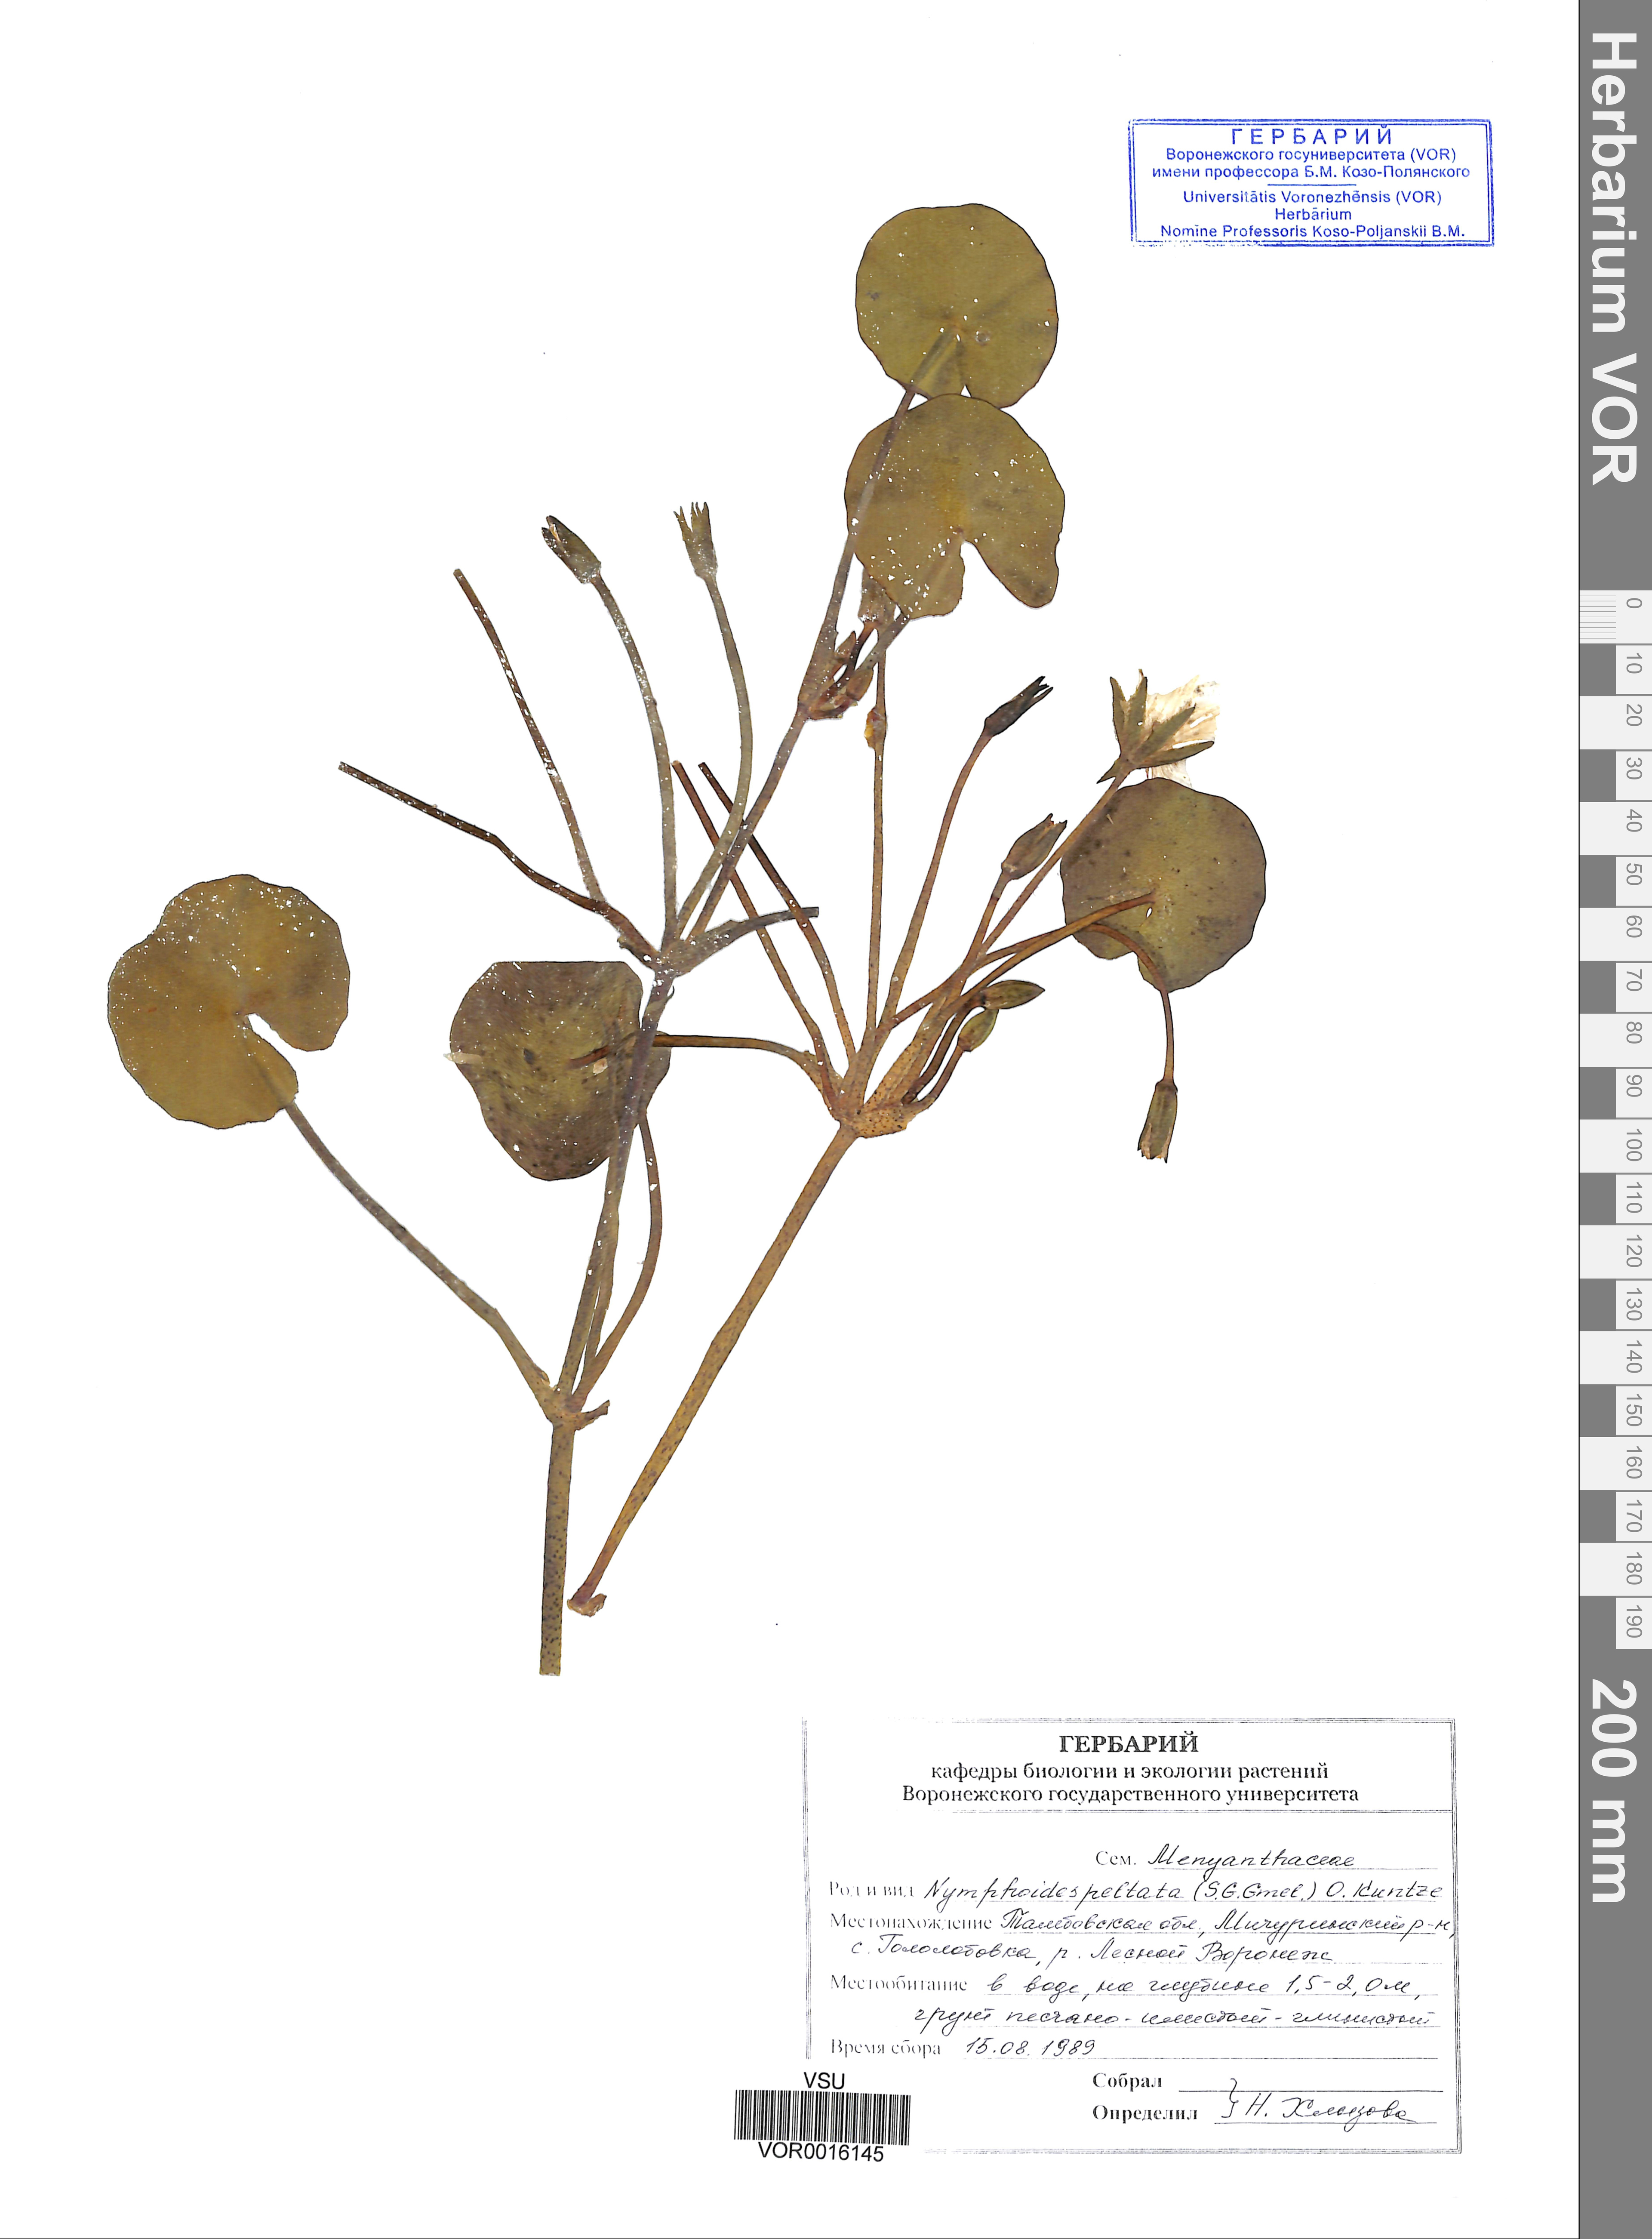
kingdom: Plantae
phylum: Tracheophyta
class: Magnoliopsida
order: Asterales
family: Menyanthaceae
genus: Nymphoides
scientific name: Nymphoides peltata
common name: Fringed water-lily
